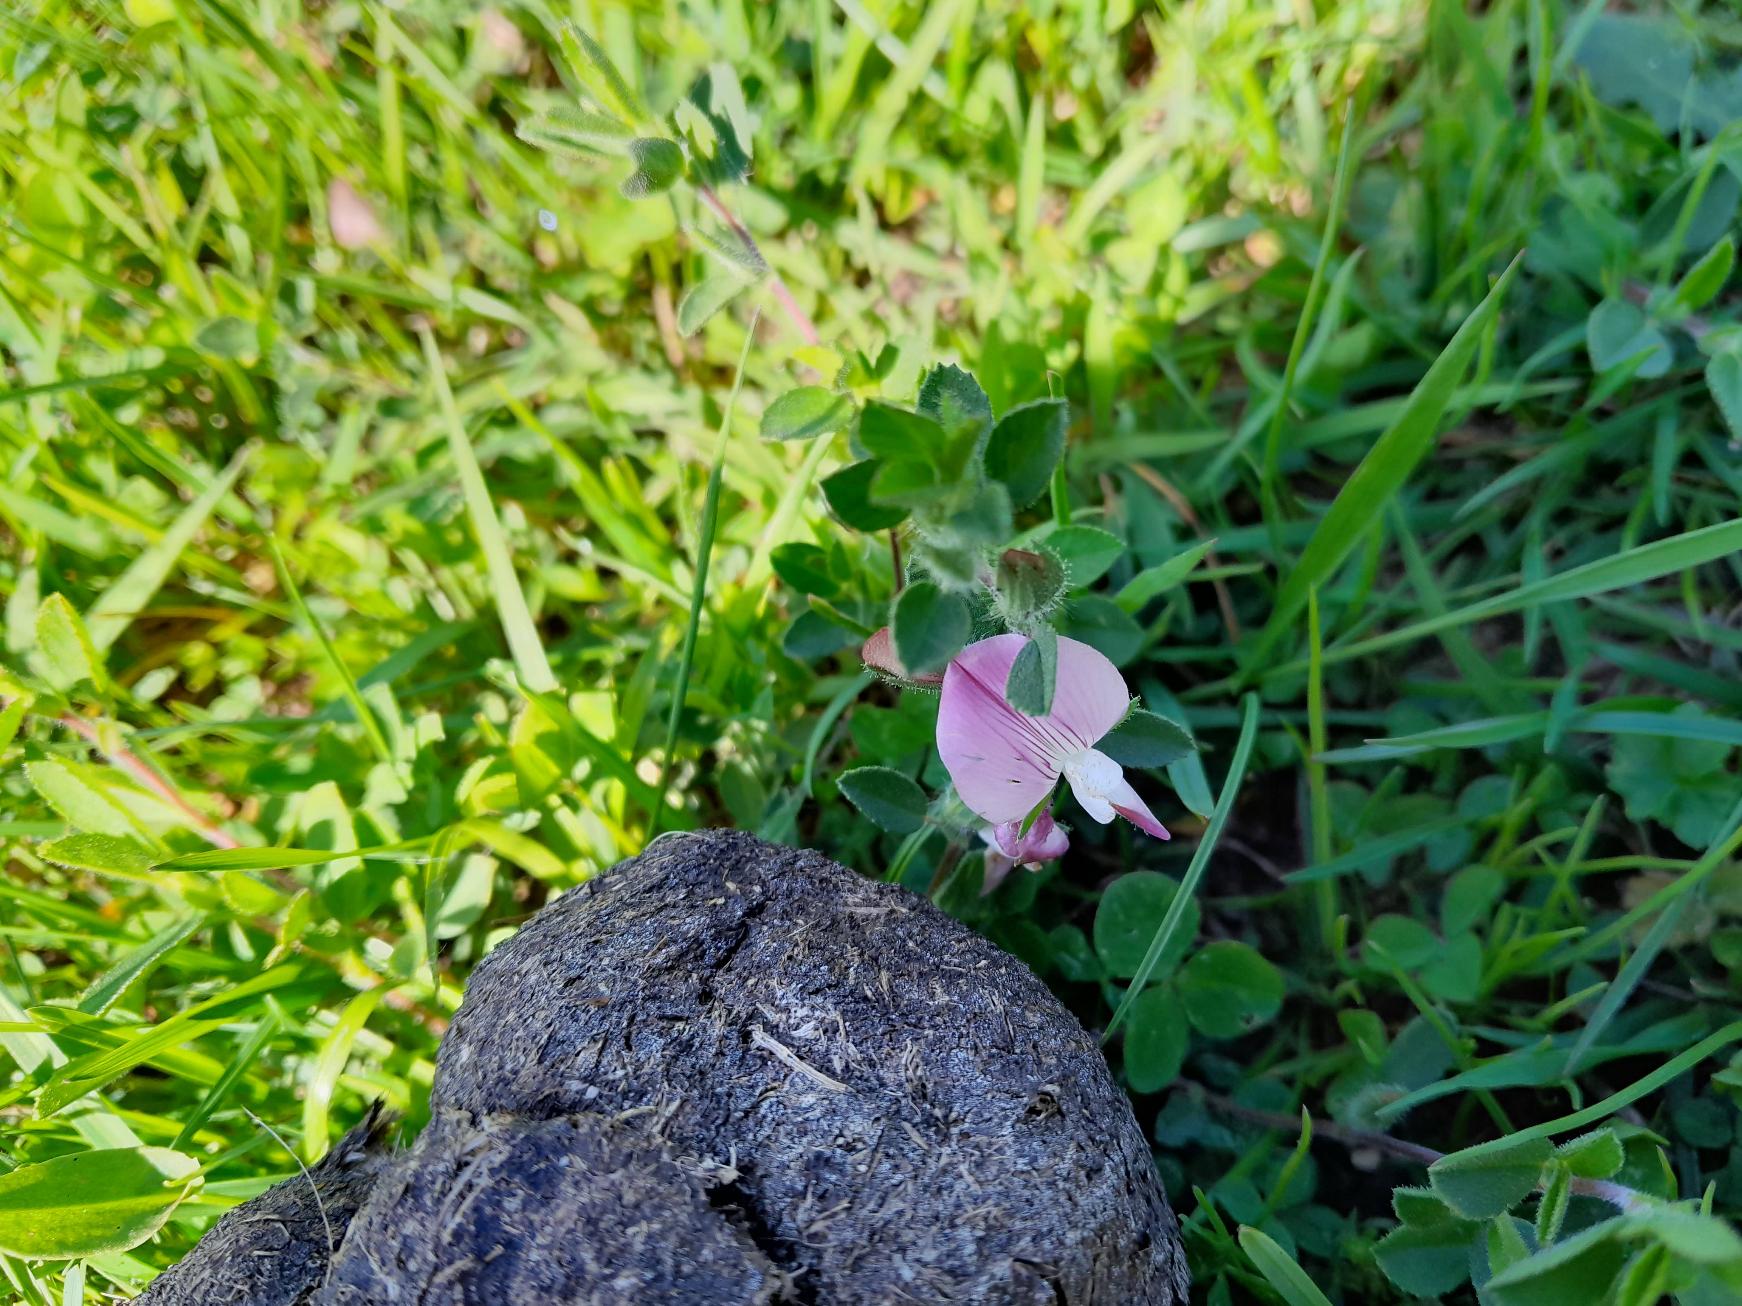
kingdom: Plantae
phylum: Tracheophyta
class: Magnoliopsida
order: Fabales
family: Fabaceae
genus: Ononis
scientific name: Ononis spinosa
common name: Mark-krageklo
